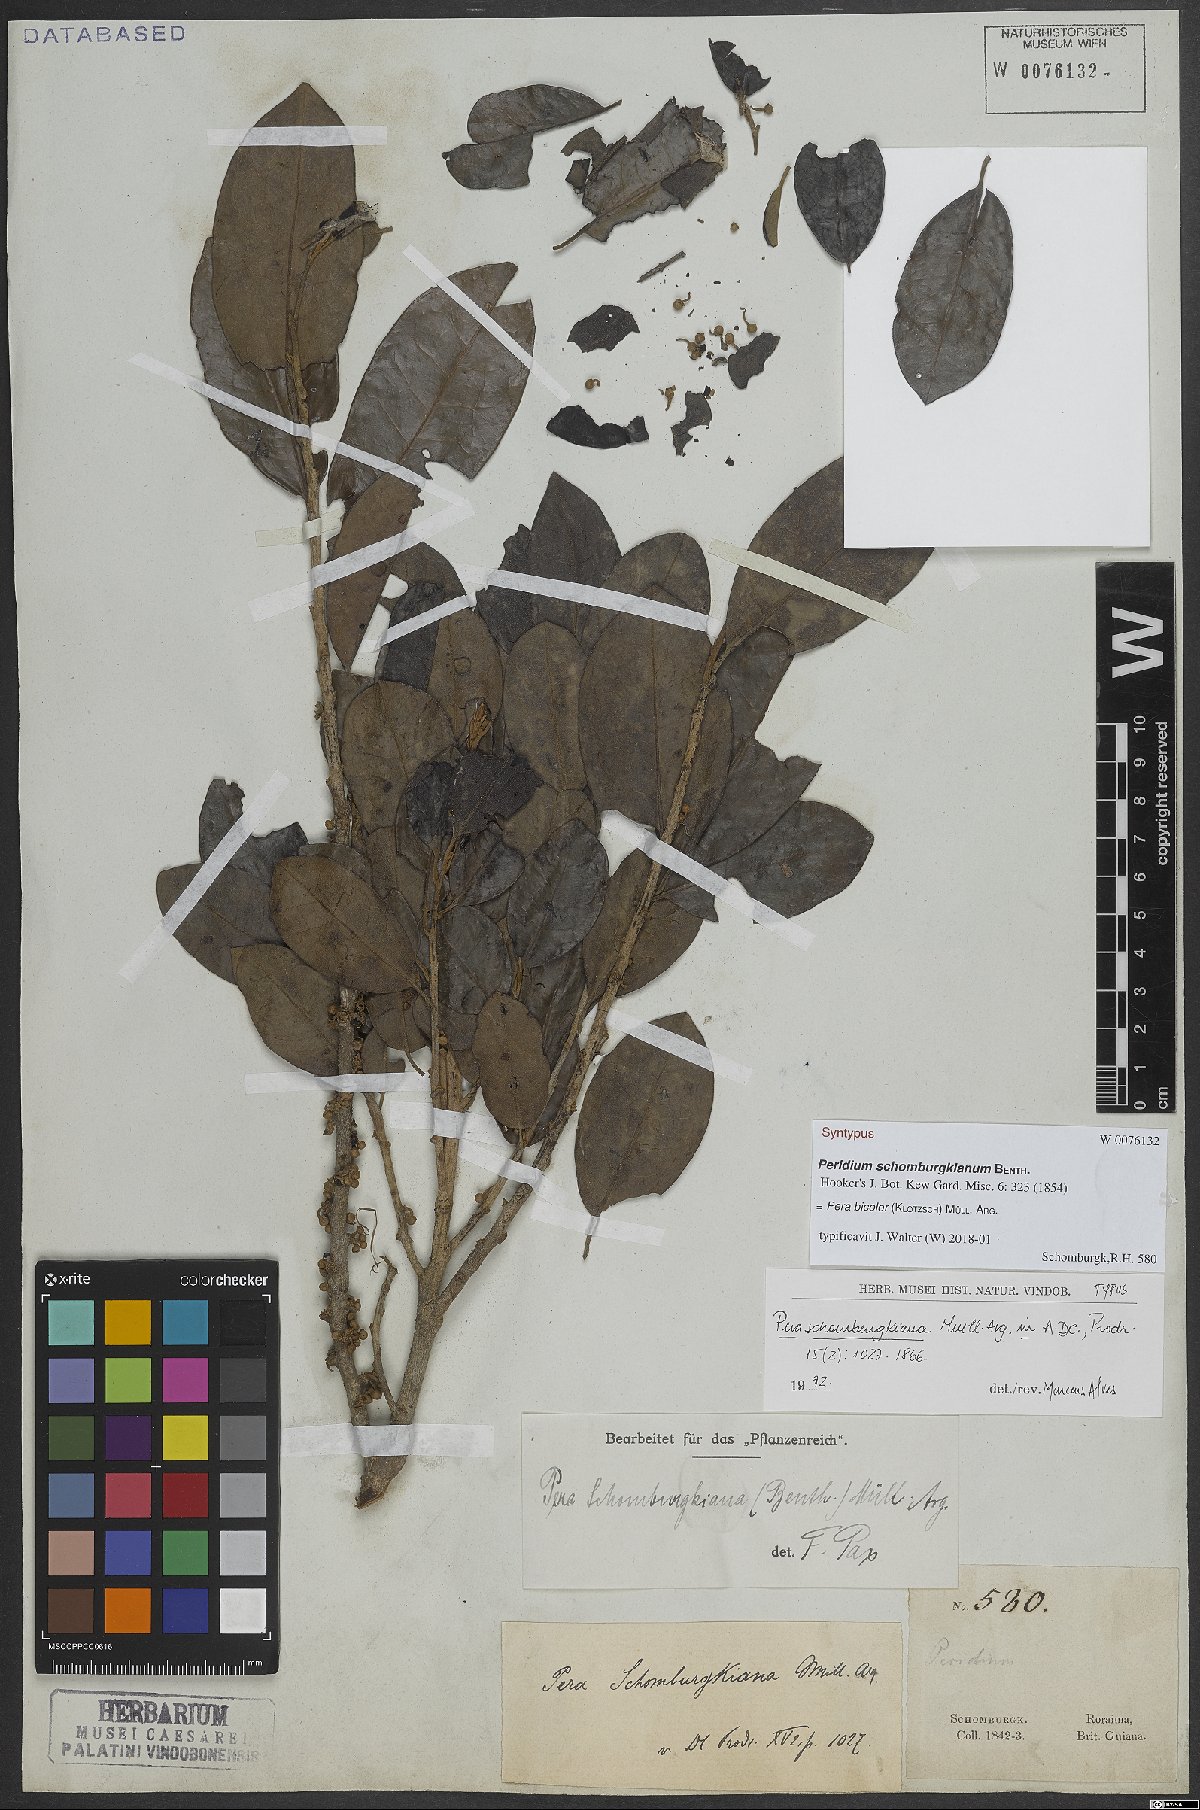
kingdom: Plantae
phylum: Tracheophyta
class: Magnoliopsida
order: Malpighiales
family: Peraceae
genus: Pera
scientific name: Pera bicolor
